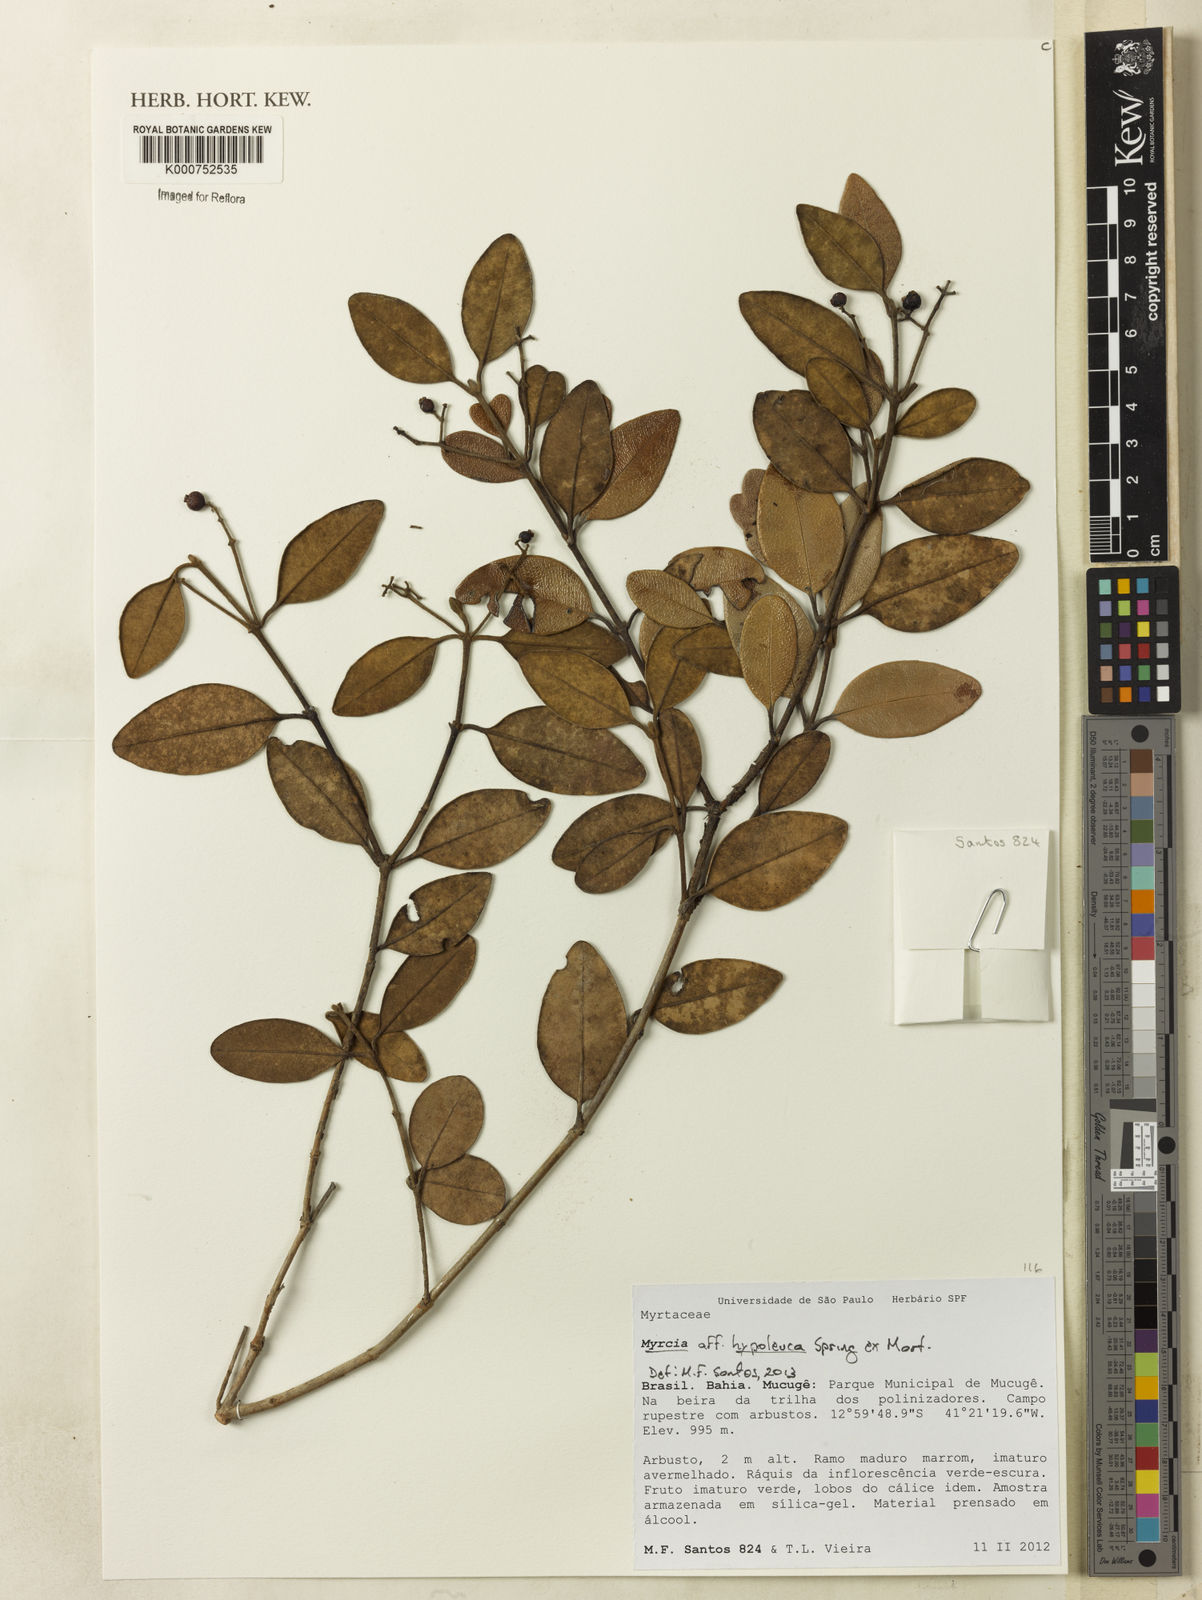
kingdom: Plantae
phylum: Tracheophyta
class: Magnoliopsida
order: Myrtales
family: Myrtaceae
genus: Myrcia
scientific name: Myrcia hypoleuca
